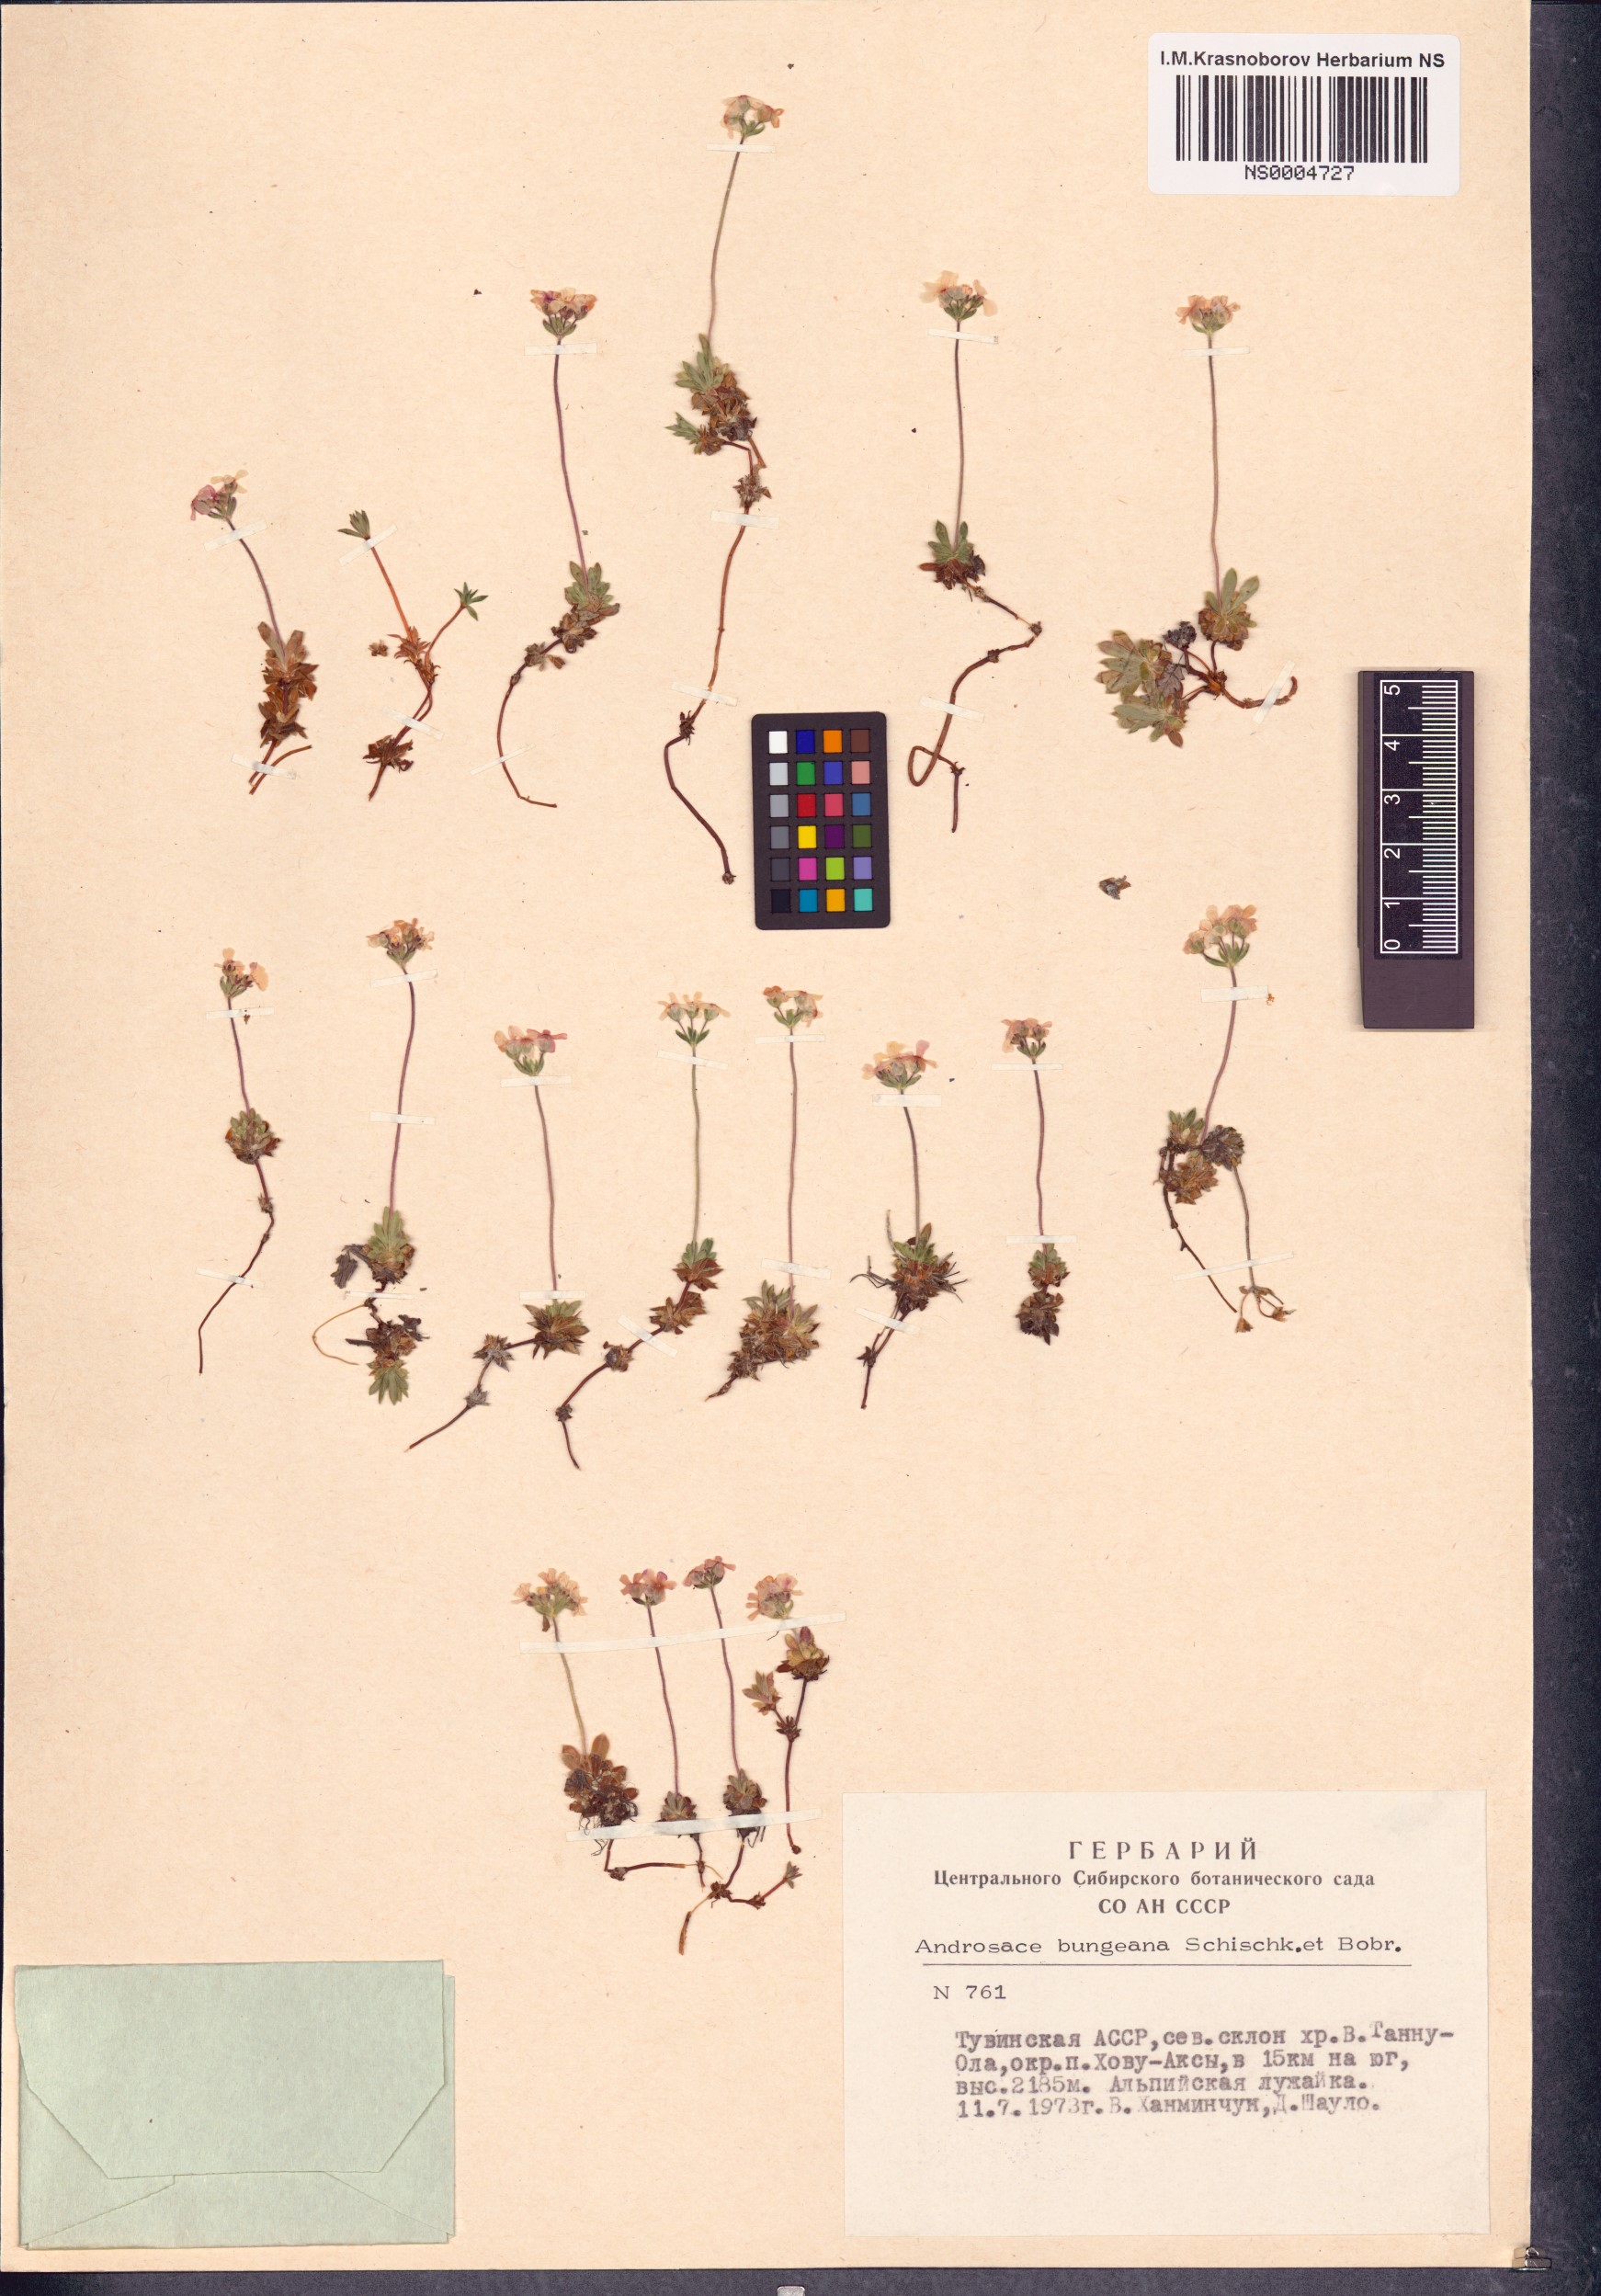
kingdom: Plantae
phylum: Tracheophyta
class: Magnoliopsida
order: Ericales
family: Primulaceae
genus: Androsace
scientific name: Androsace bungeana
